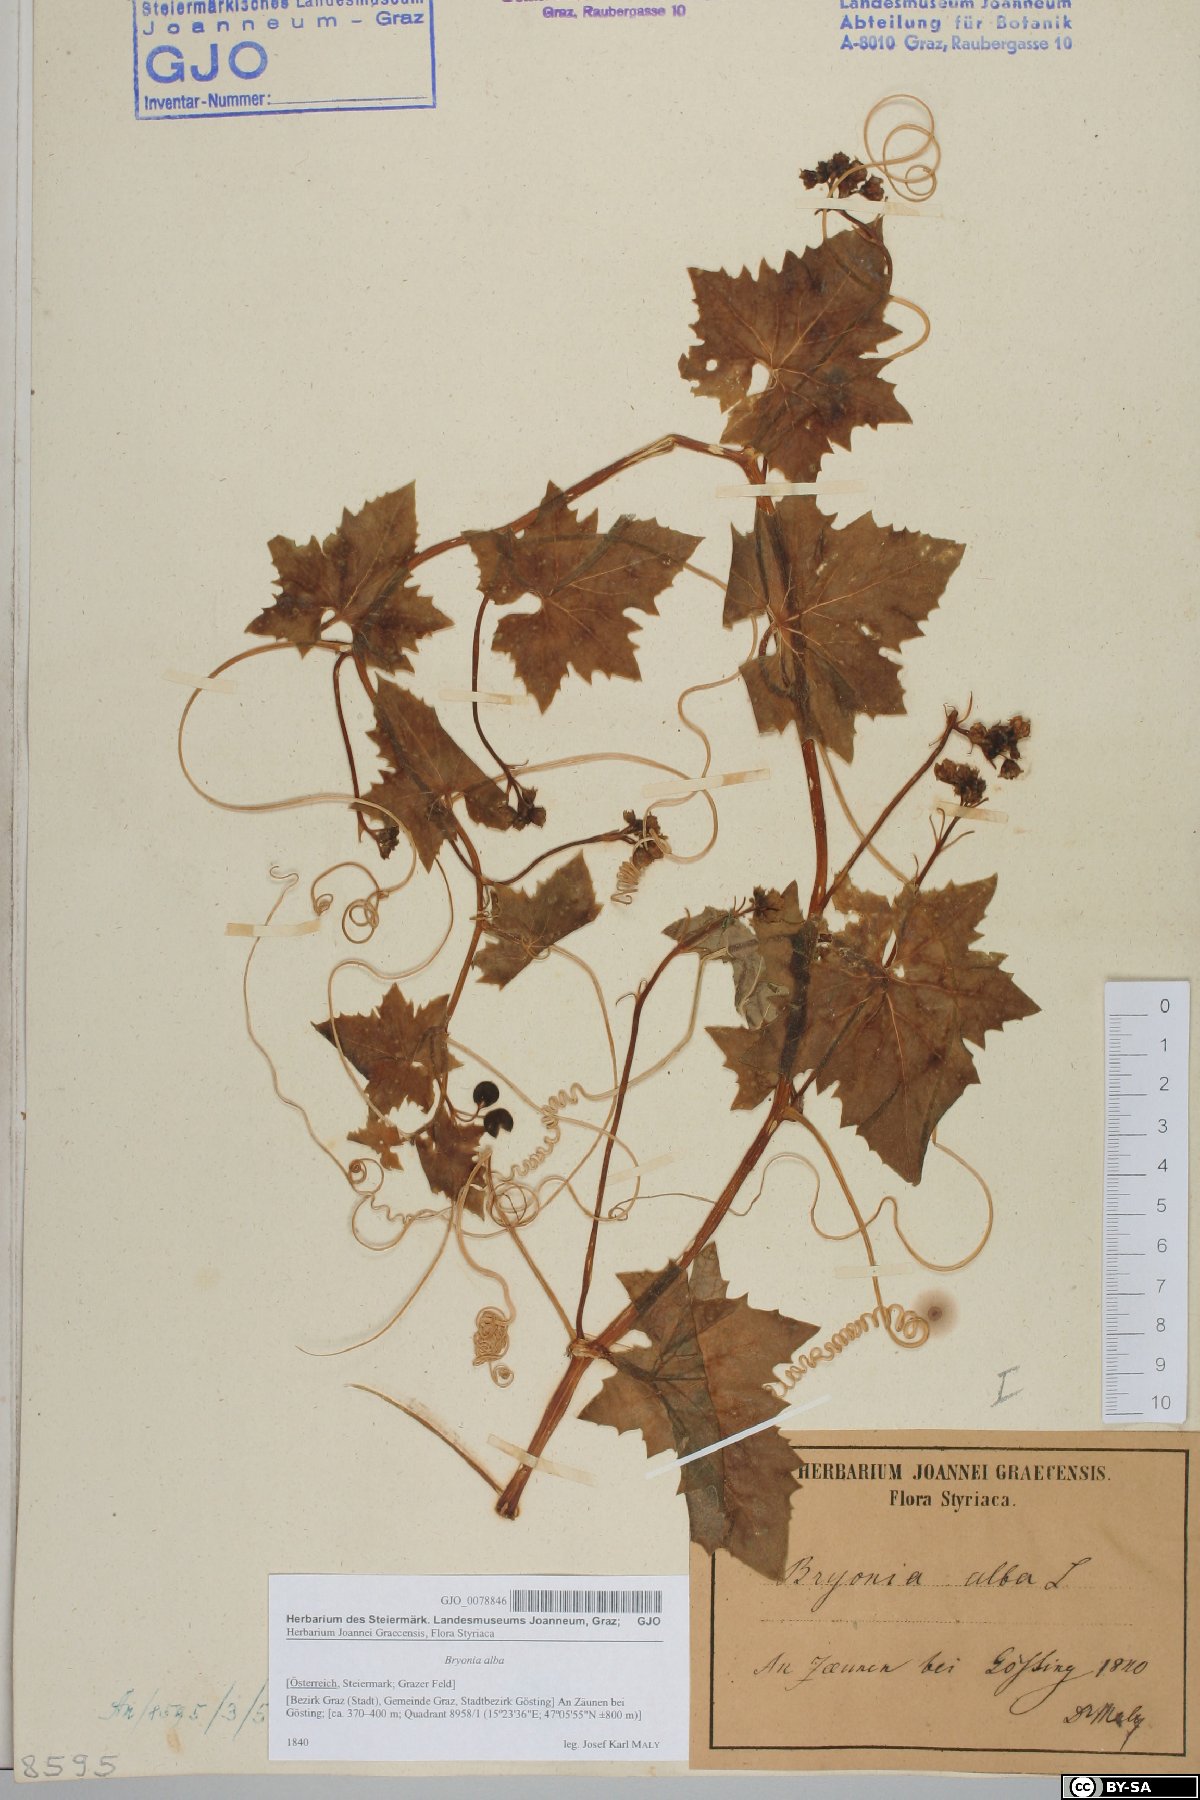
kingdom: Plantae
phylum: Tracheophyta
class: Magnoliopsida
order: Cucurbitales
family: Cucurbitaceae
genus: Bryonia
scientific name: Bryonia alba
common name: White bryony
